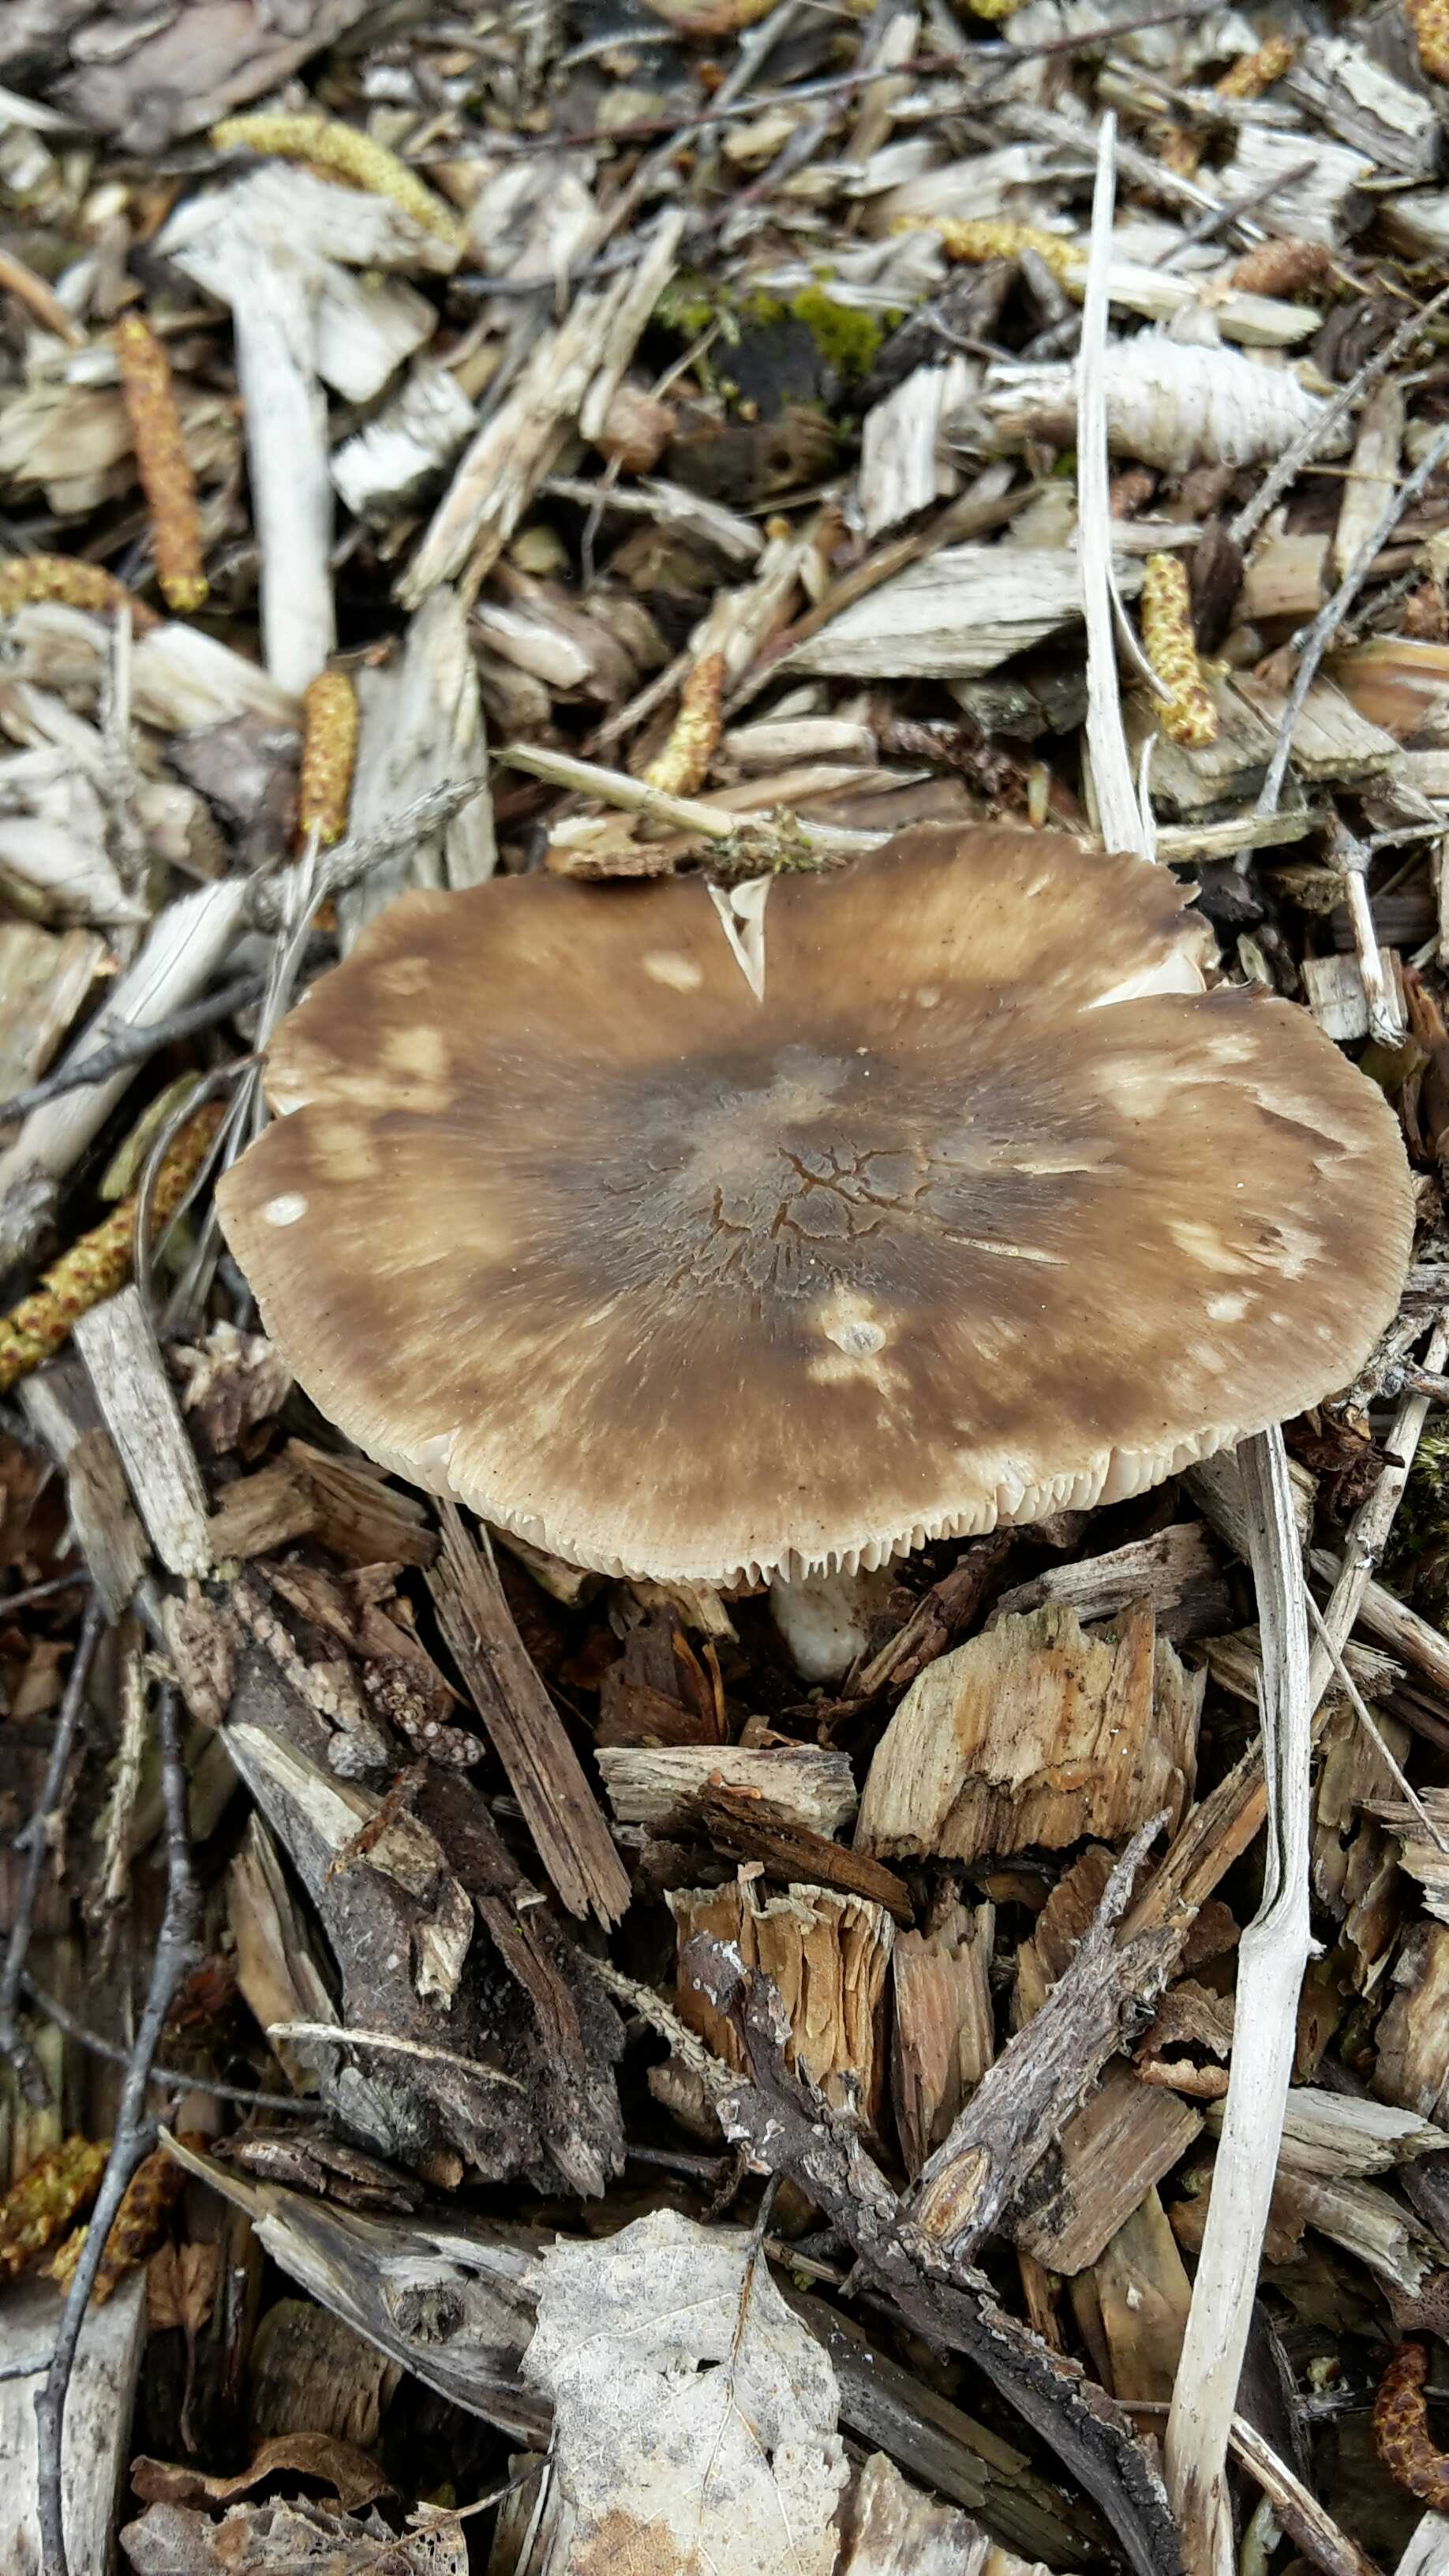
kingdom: Fungi
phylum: Basidiomycota
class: Agaricomycetes
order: Agaricales
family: Pluteaceae
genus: Pluteus
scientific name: Pluteus cervinus
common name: sodfarvet skærmhat
